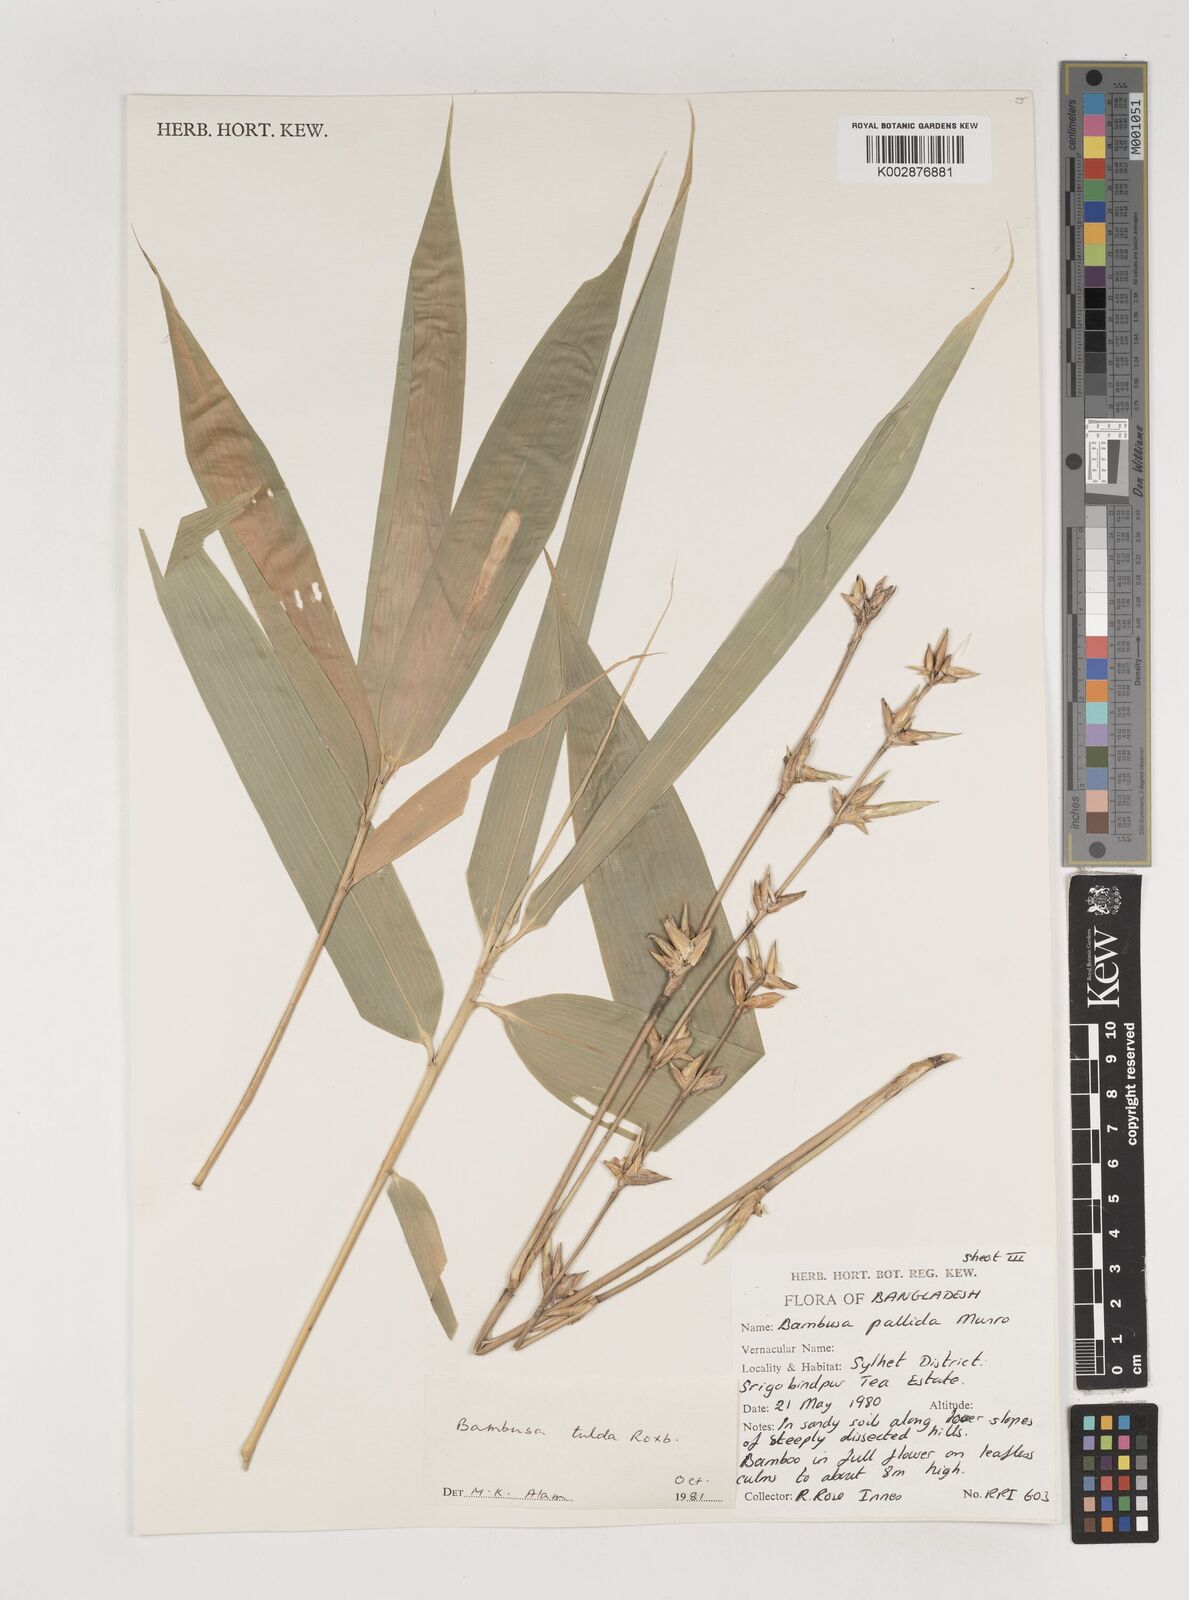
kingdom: Plantae
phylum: Tracheophyta
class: Liliopsida
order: Poales
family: Poaceae
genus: Bambusa
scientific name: Bambusa tuldoides
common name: Verdant bamboo
